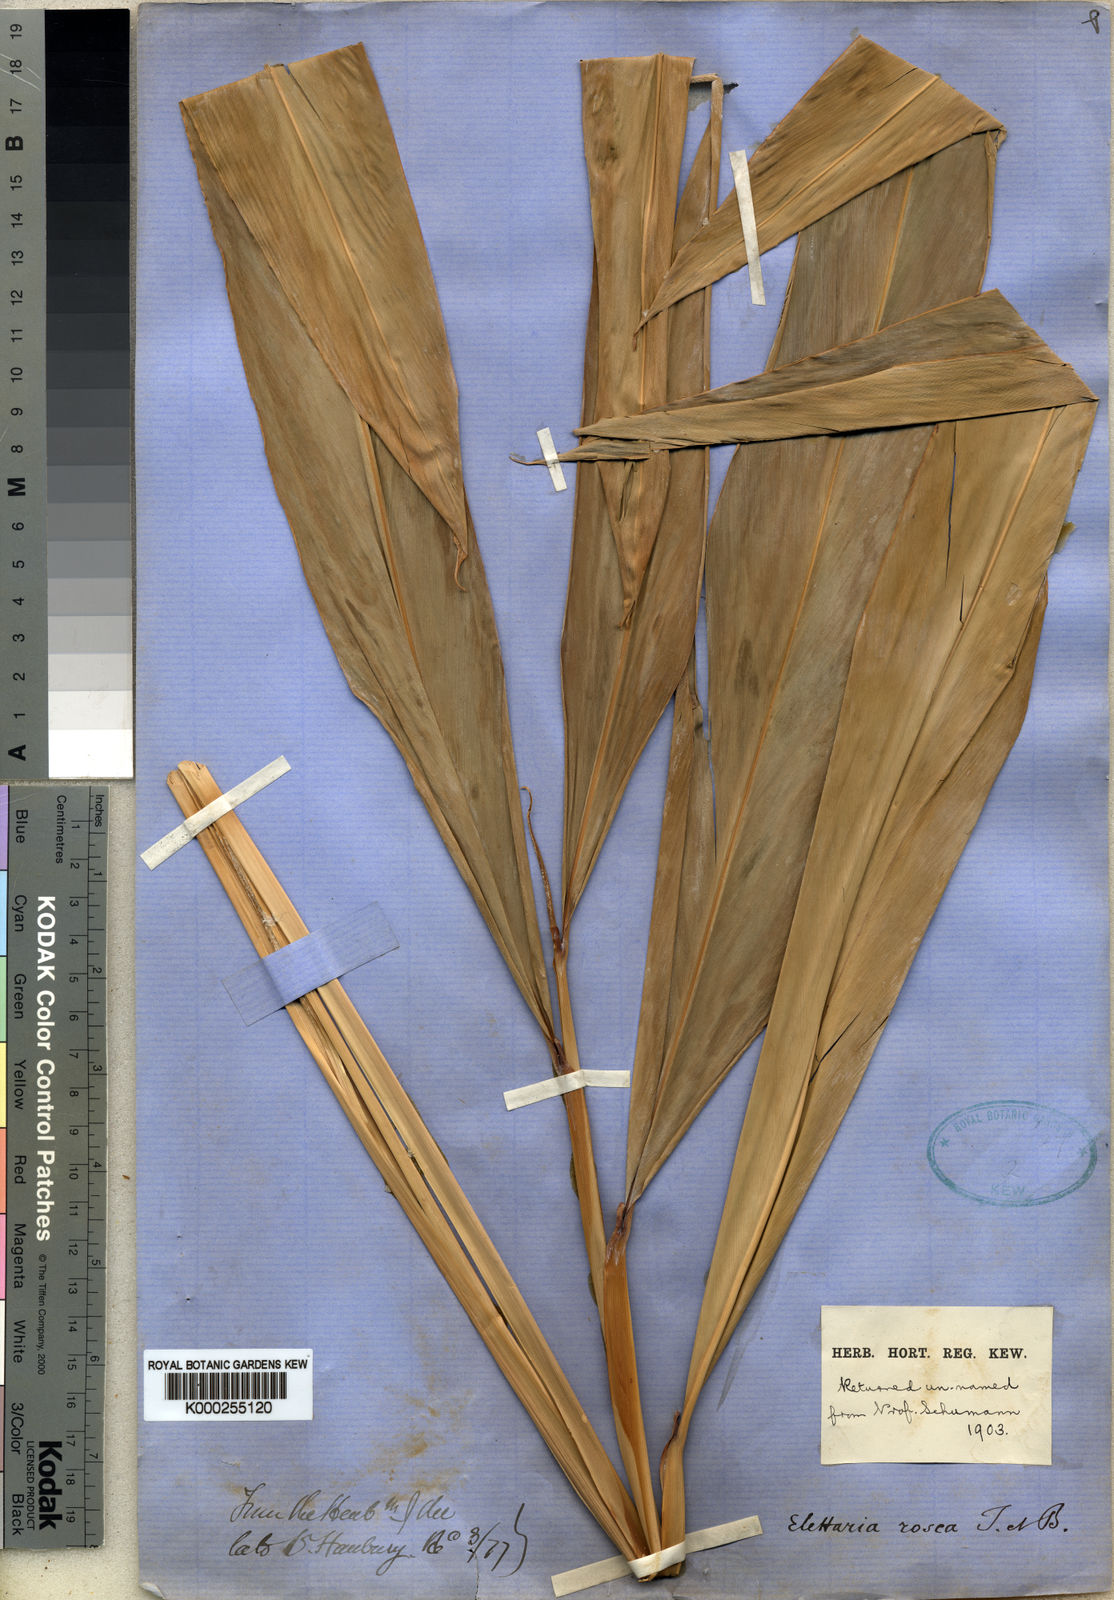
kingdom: Plantae
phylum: Tracheophyta
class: Liliopsida
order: Zingiberales
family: Zingiberaceae
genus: Etlingera
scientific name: Etlingera alba
